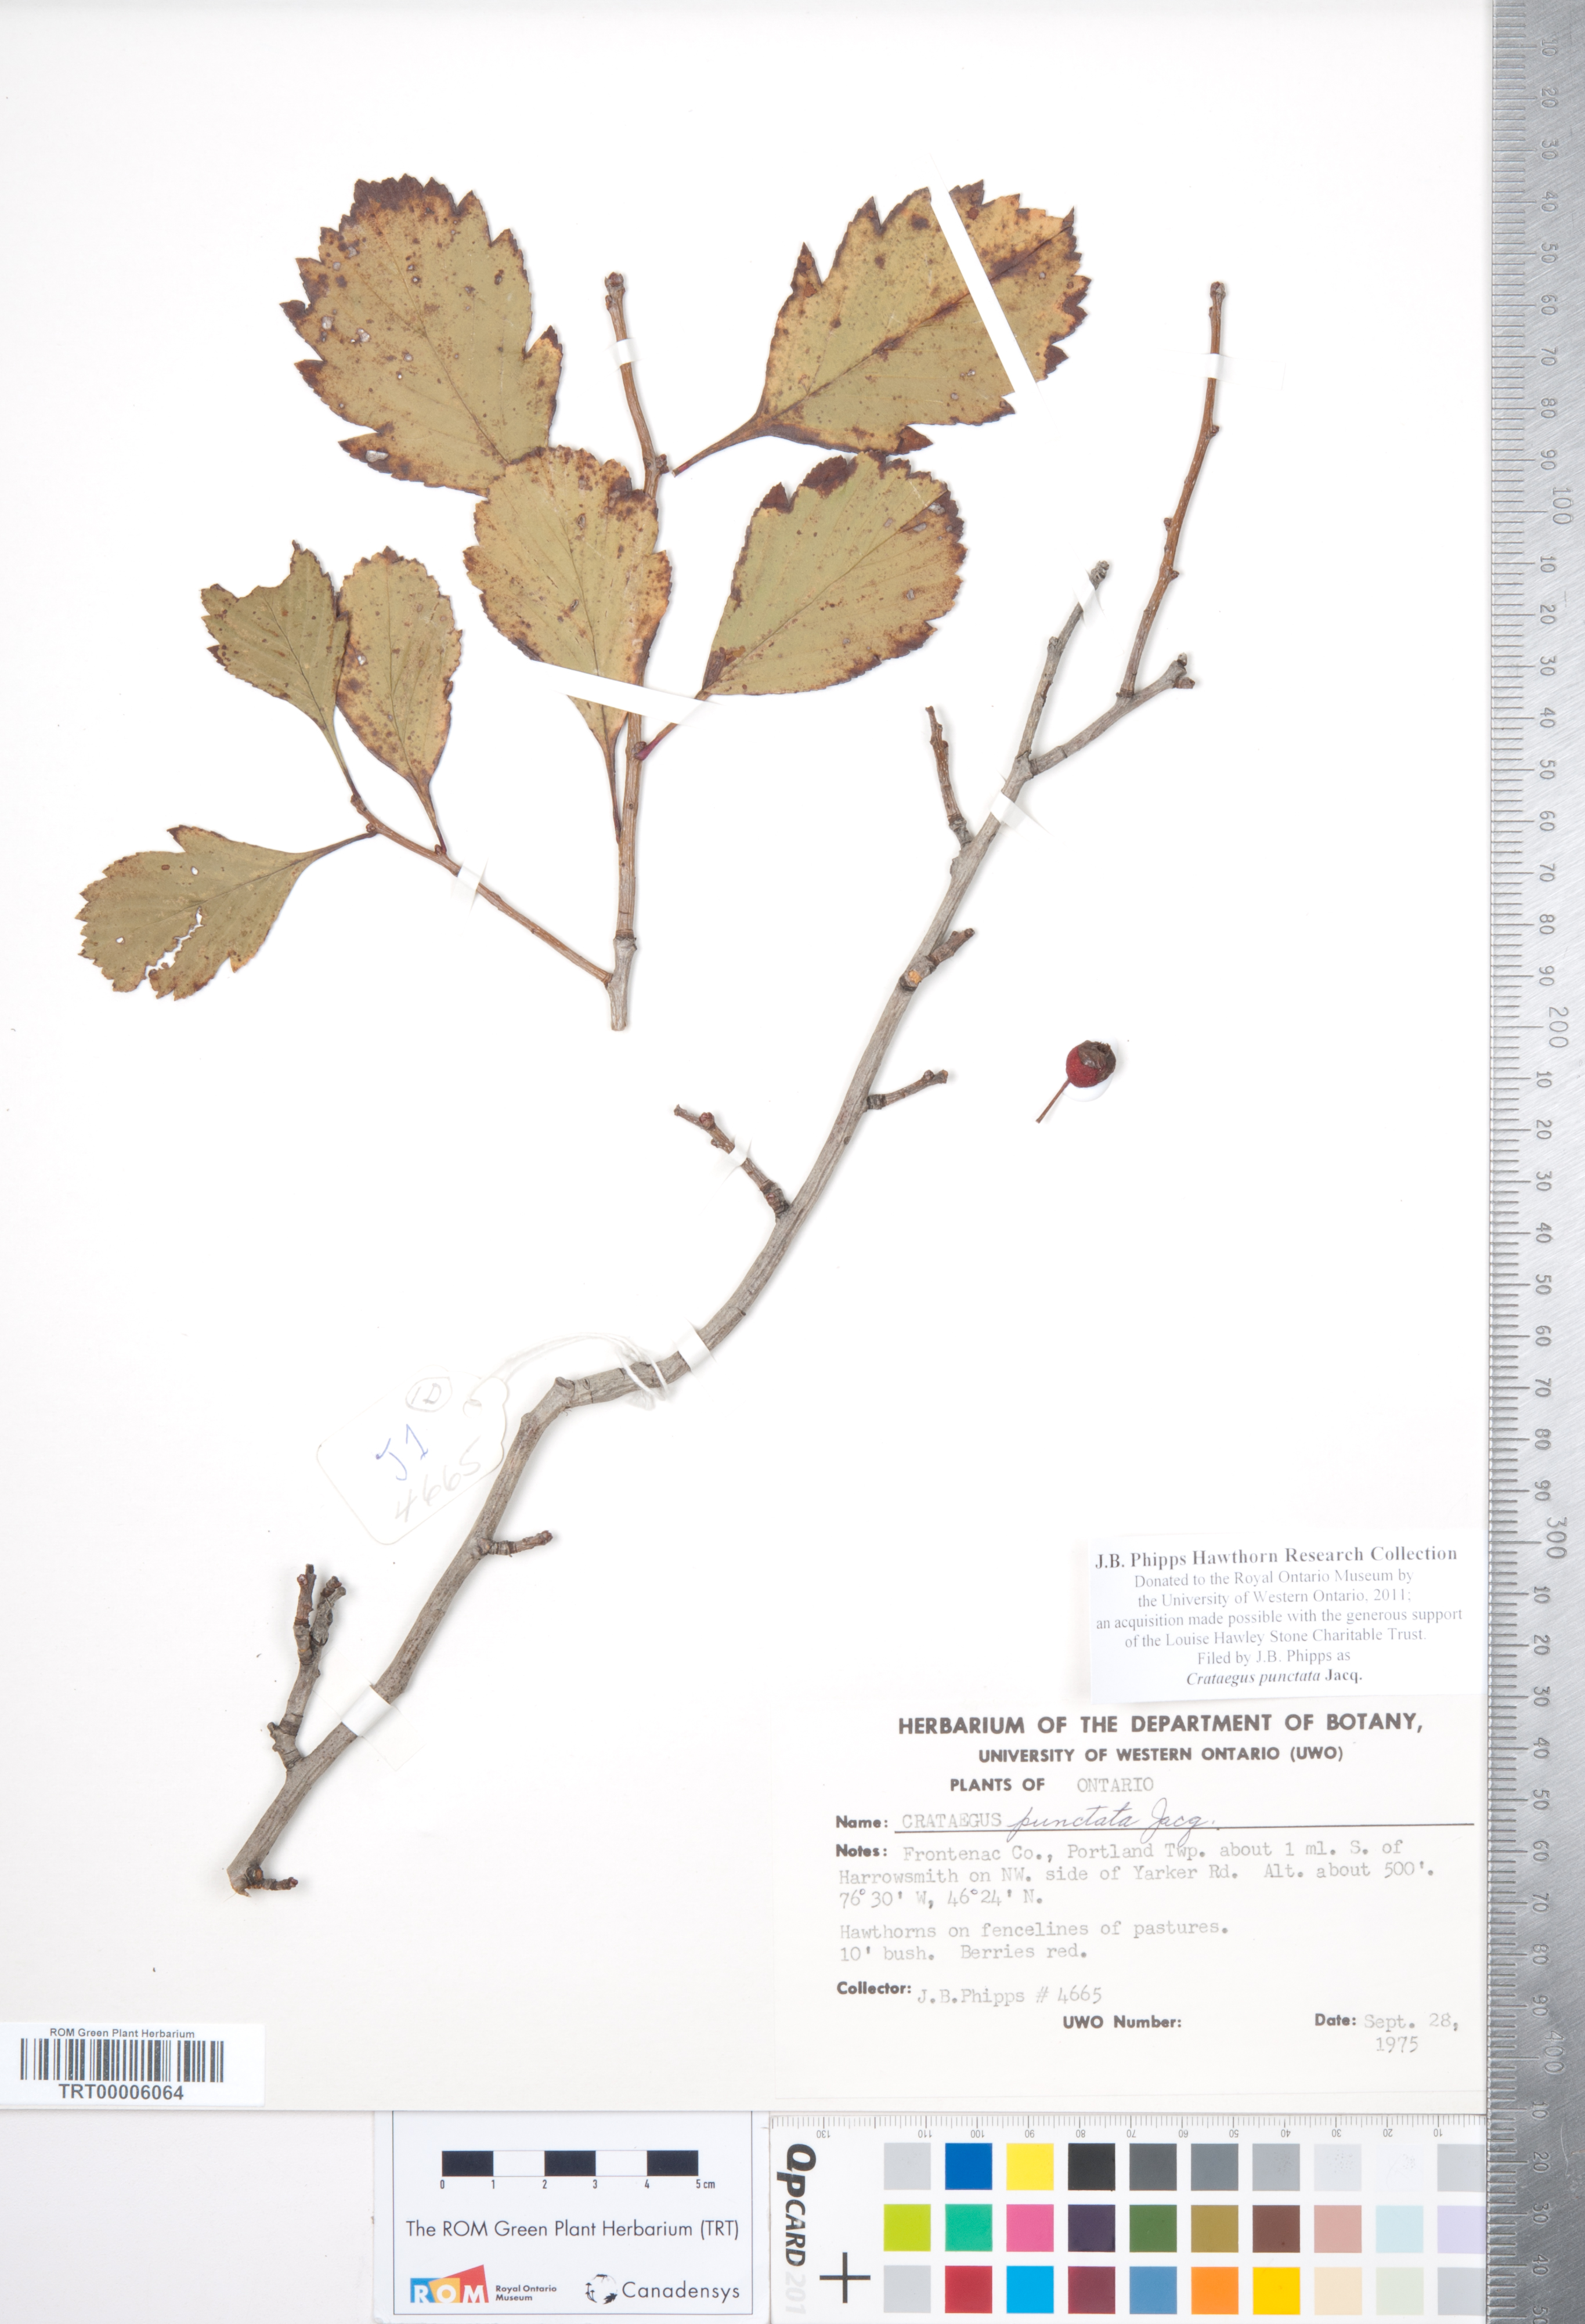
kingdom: Plantae
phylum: Tracheophyta
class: Magnoliopsida
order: Rosales
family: Rosaceae
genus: Crataegus
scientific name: Crataegus punctata
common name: Dotted hawthorn
